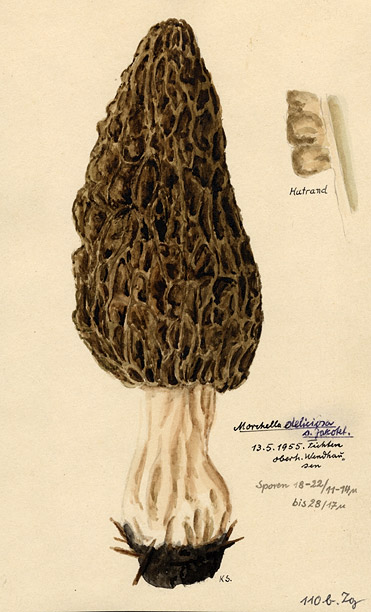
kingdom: Fungi
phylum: Ascomycota
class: Pezizomycetes
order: Pezizales
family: Morchellaceae
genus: Morchella
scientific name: Morchella deliciosa
